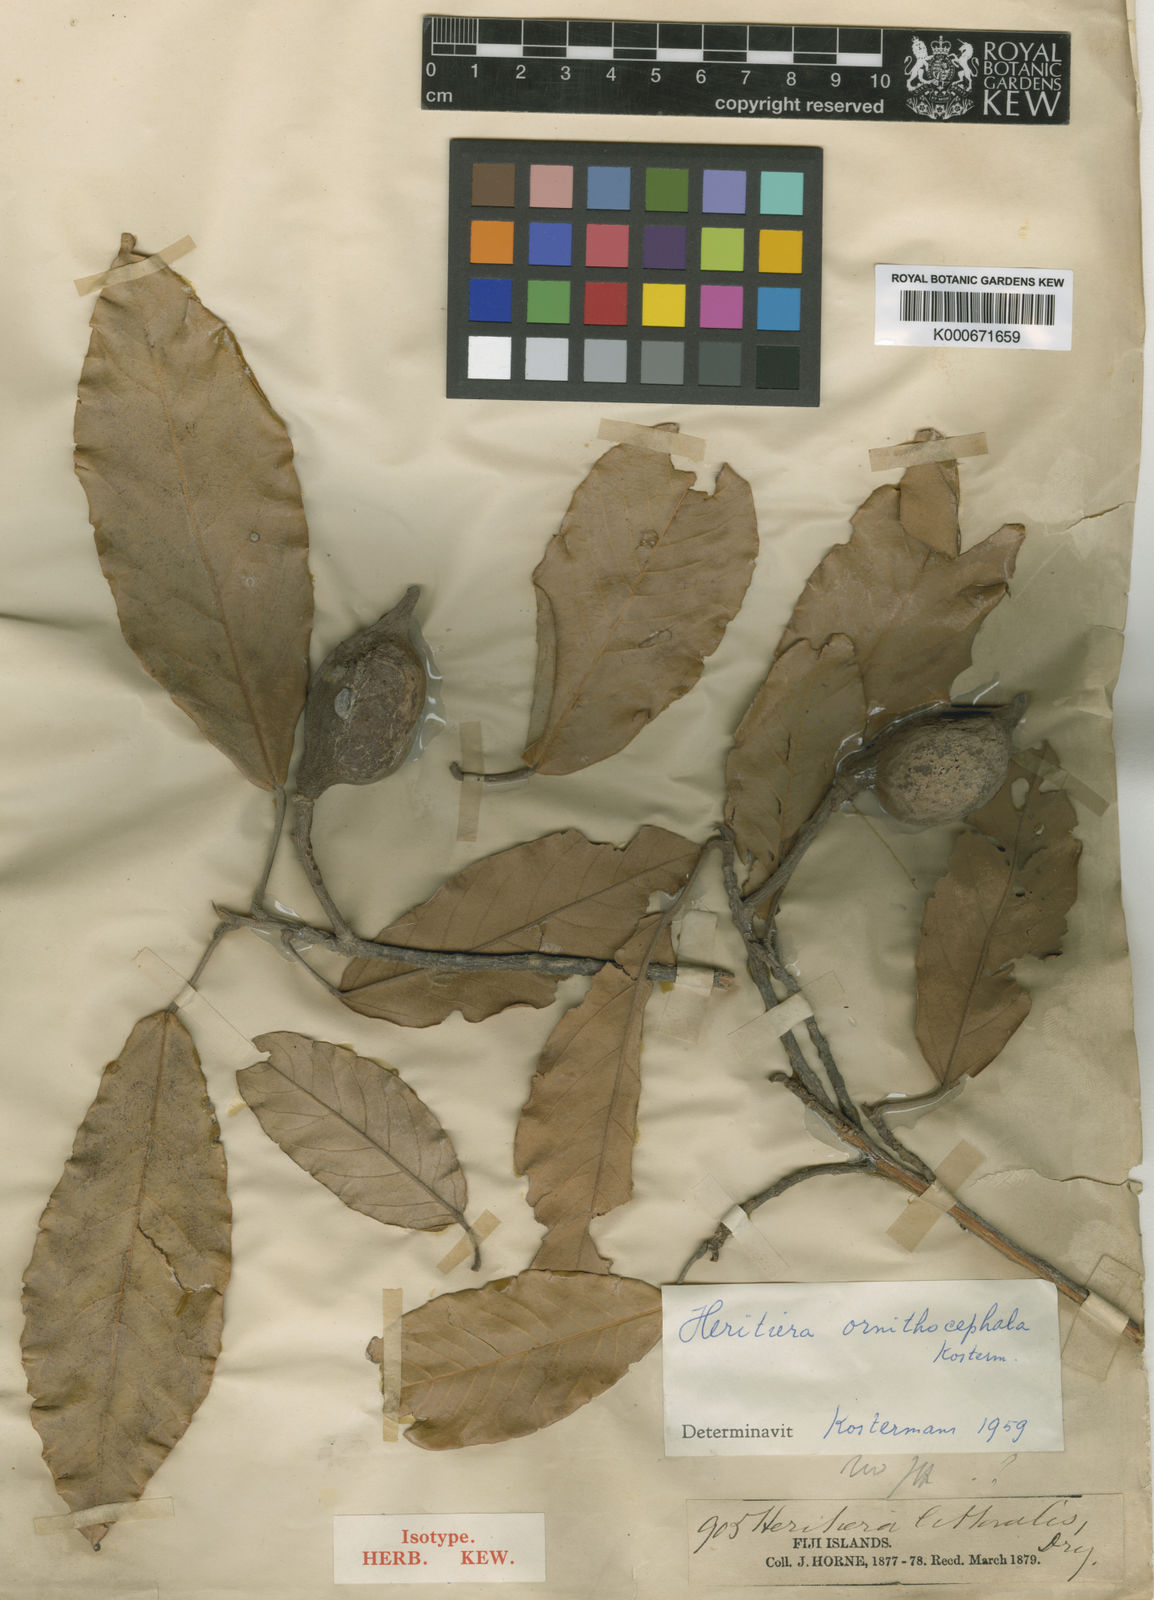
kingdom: Plantae
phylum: Tracheophyta
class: Magnoliopsida
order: Malvales
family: Malvaceae
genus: Heritiera
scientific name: Heritiera ornithocephala
